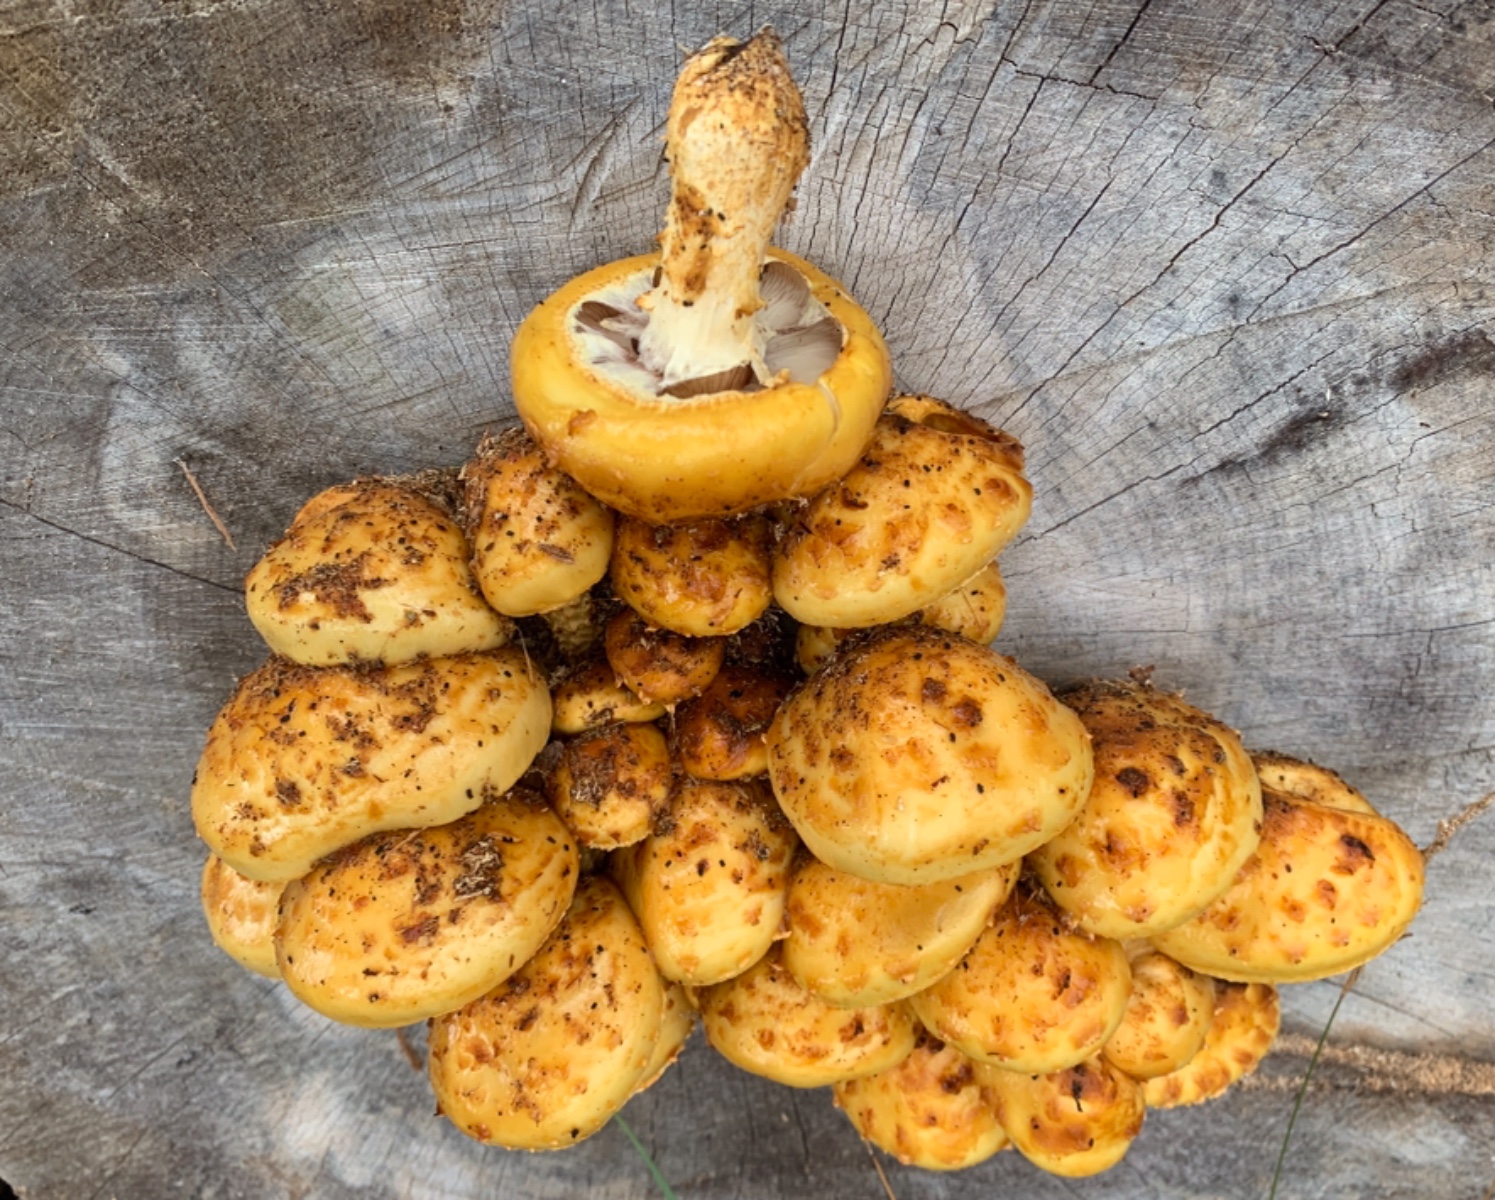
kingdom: Fungi
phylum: Basidiomycota
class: Agaricomycetes
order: Agaricales
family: Strophariaceae
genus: Pholiota
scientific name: Pholiota adiposa
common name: højtsiddende skælhat
